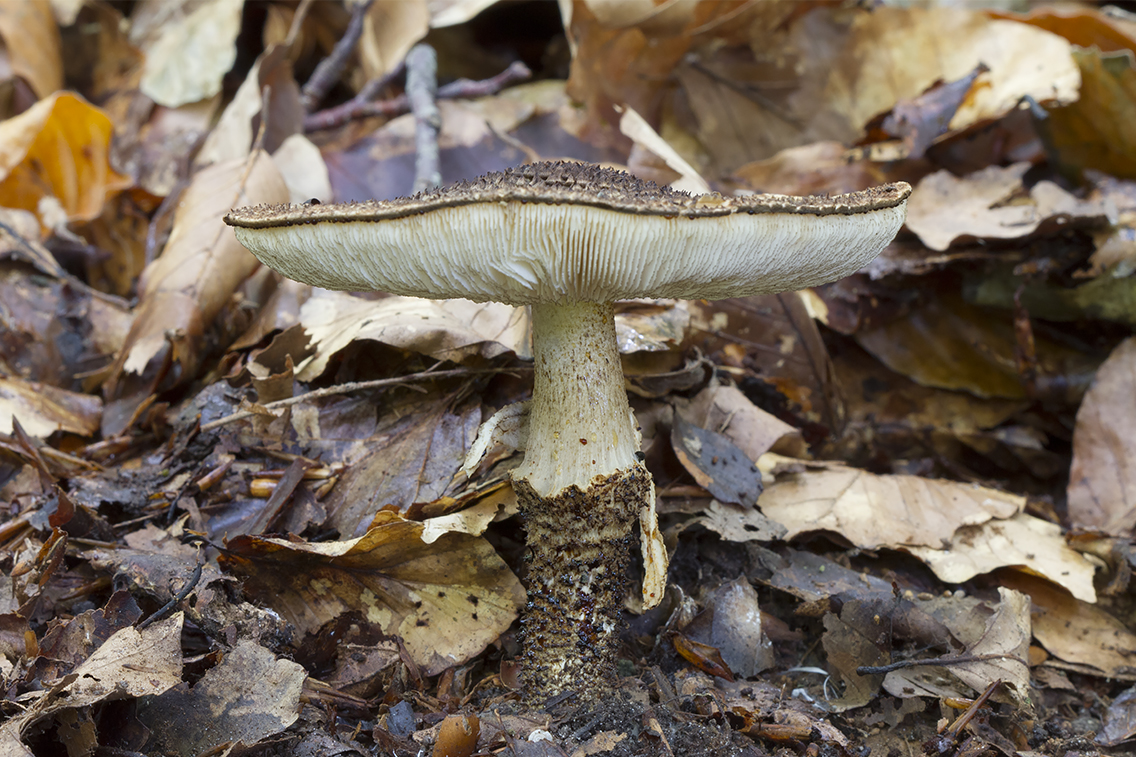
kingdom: Fungi
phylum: Basidiomycota
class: Agaricomycetes
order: Agaricales
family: Agaricaceae
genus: Echinoderma
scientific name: Echinoderma hystrix
